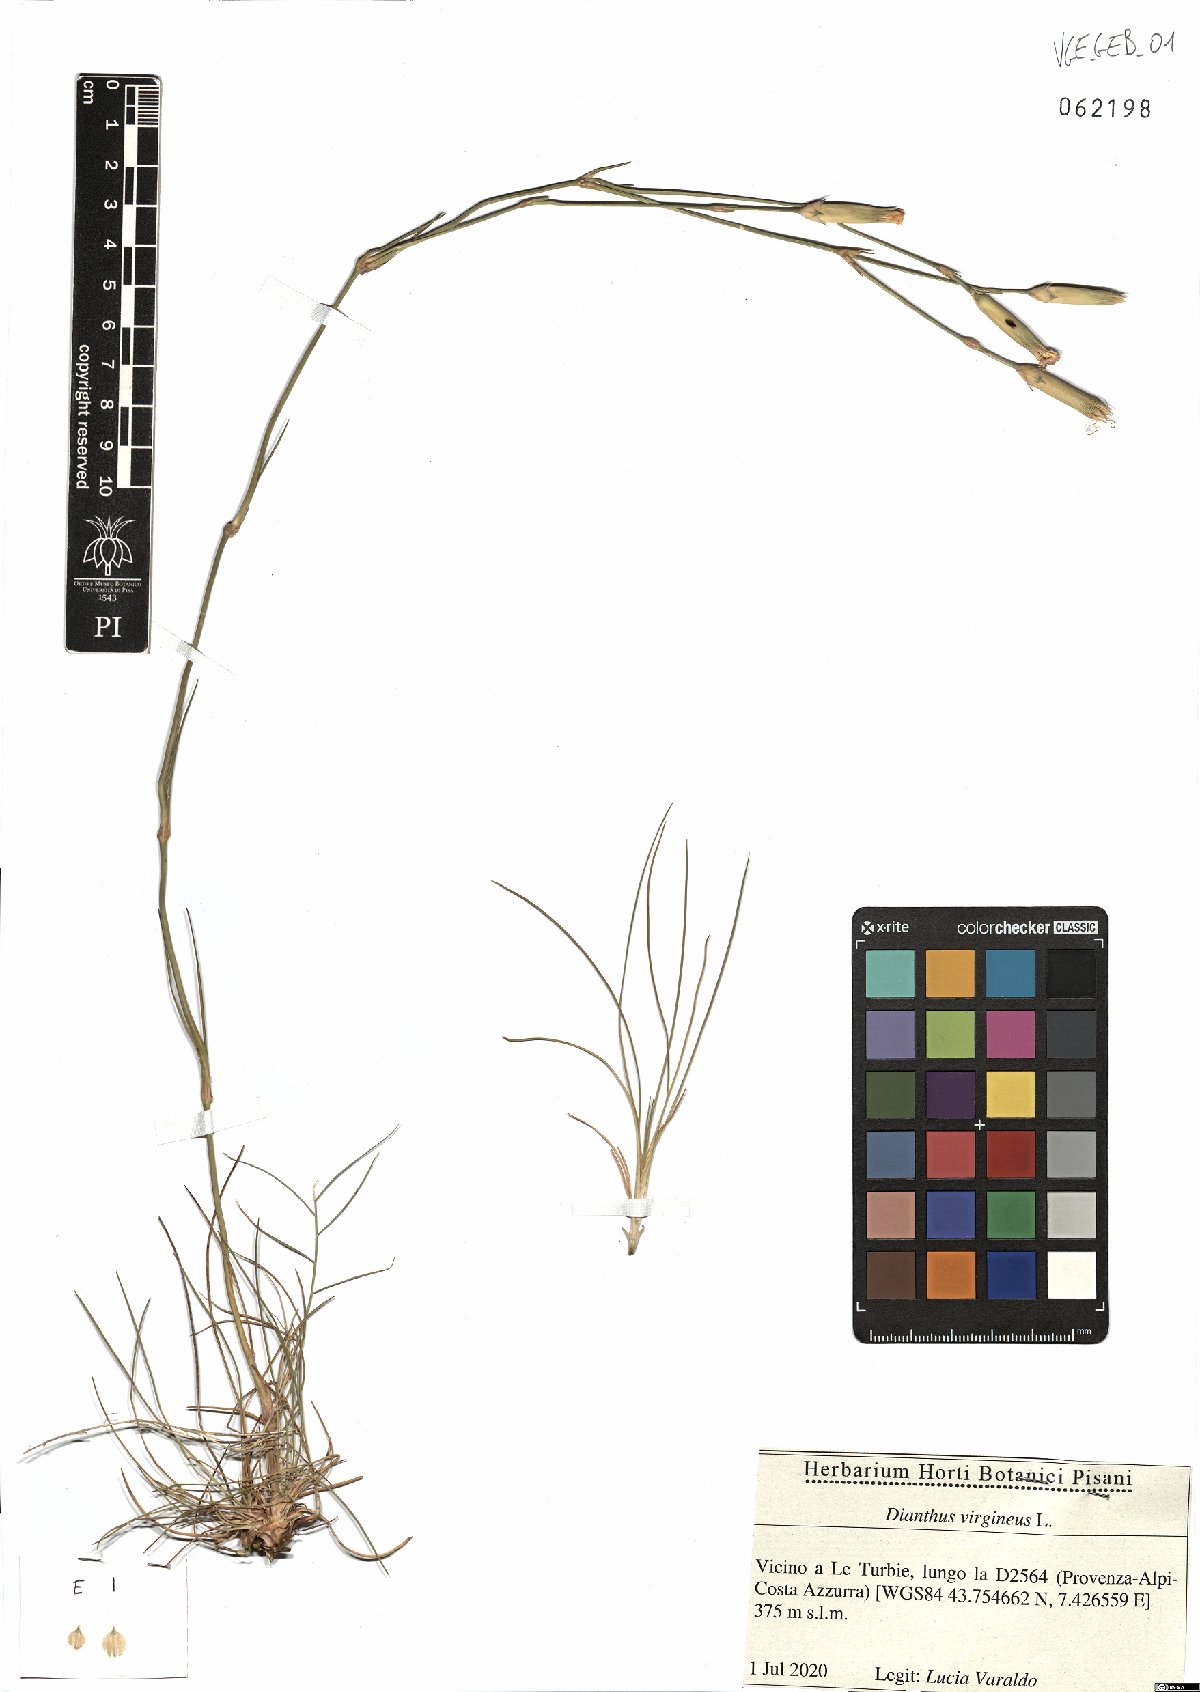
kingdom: Plantae
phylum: Tracheophyta
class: Magnoliopsida
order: Caryophyllales
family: Caryophyllaceae
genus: Dianthus
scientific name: Dianthus virgineus
